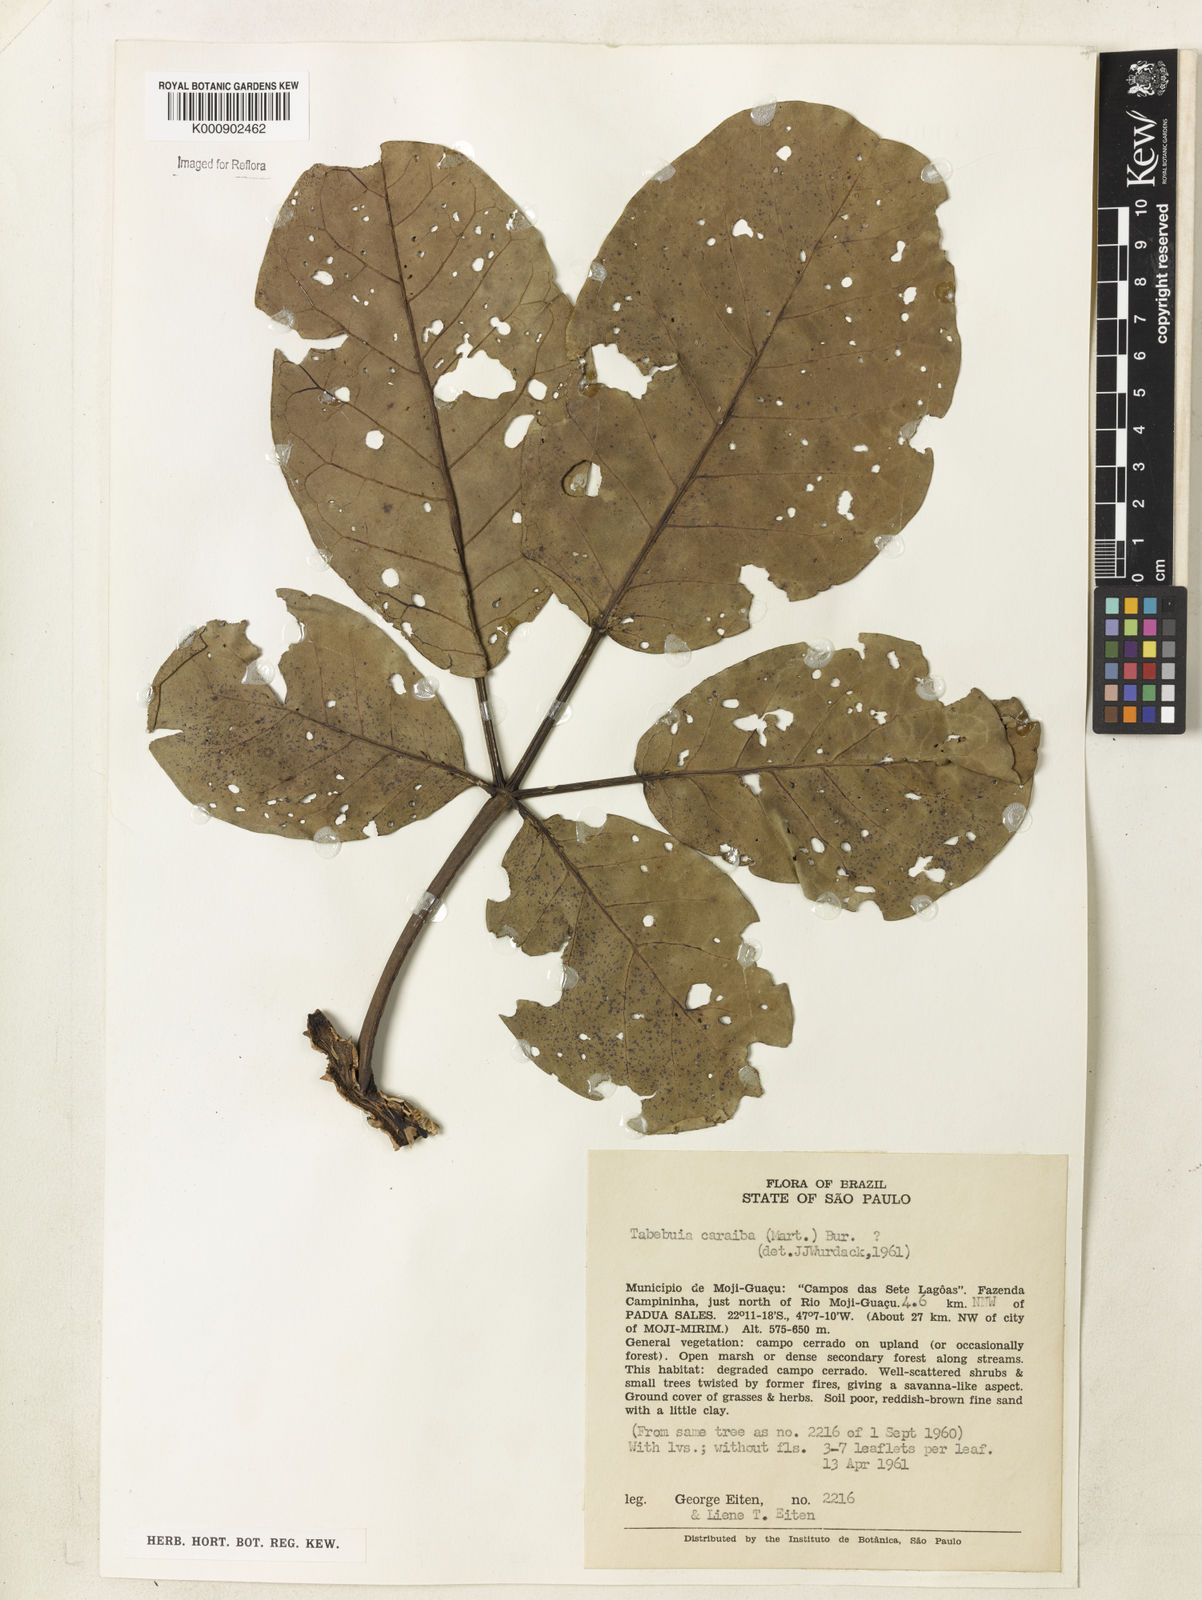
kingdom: Plantae
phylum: Tracheophyta
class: Magnoliopsida
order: Lamiales
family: Bignoniaceae
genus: Tabebuia
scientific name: Tabebuia aurea
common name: Caribbean trumpet-tree
